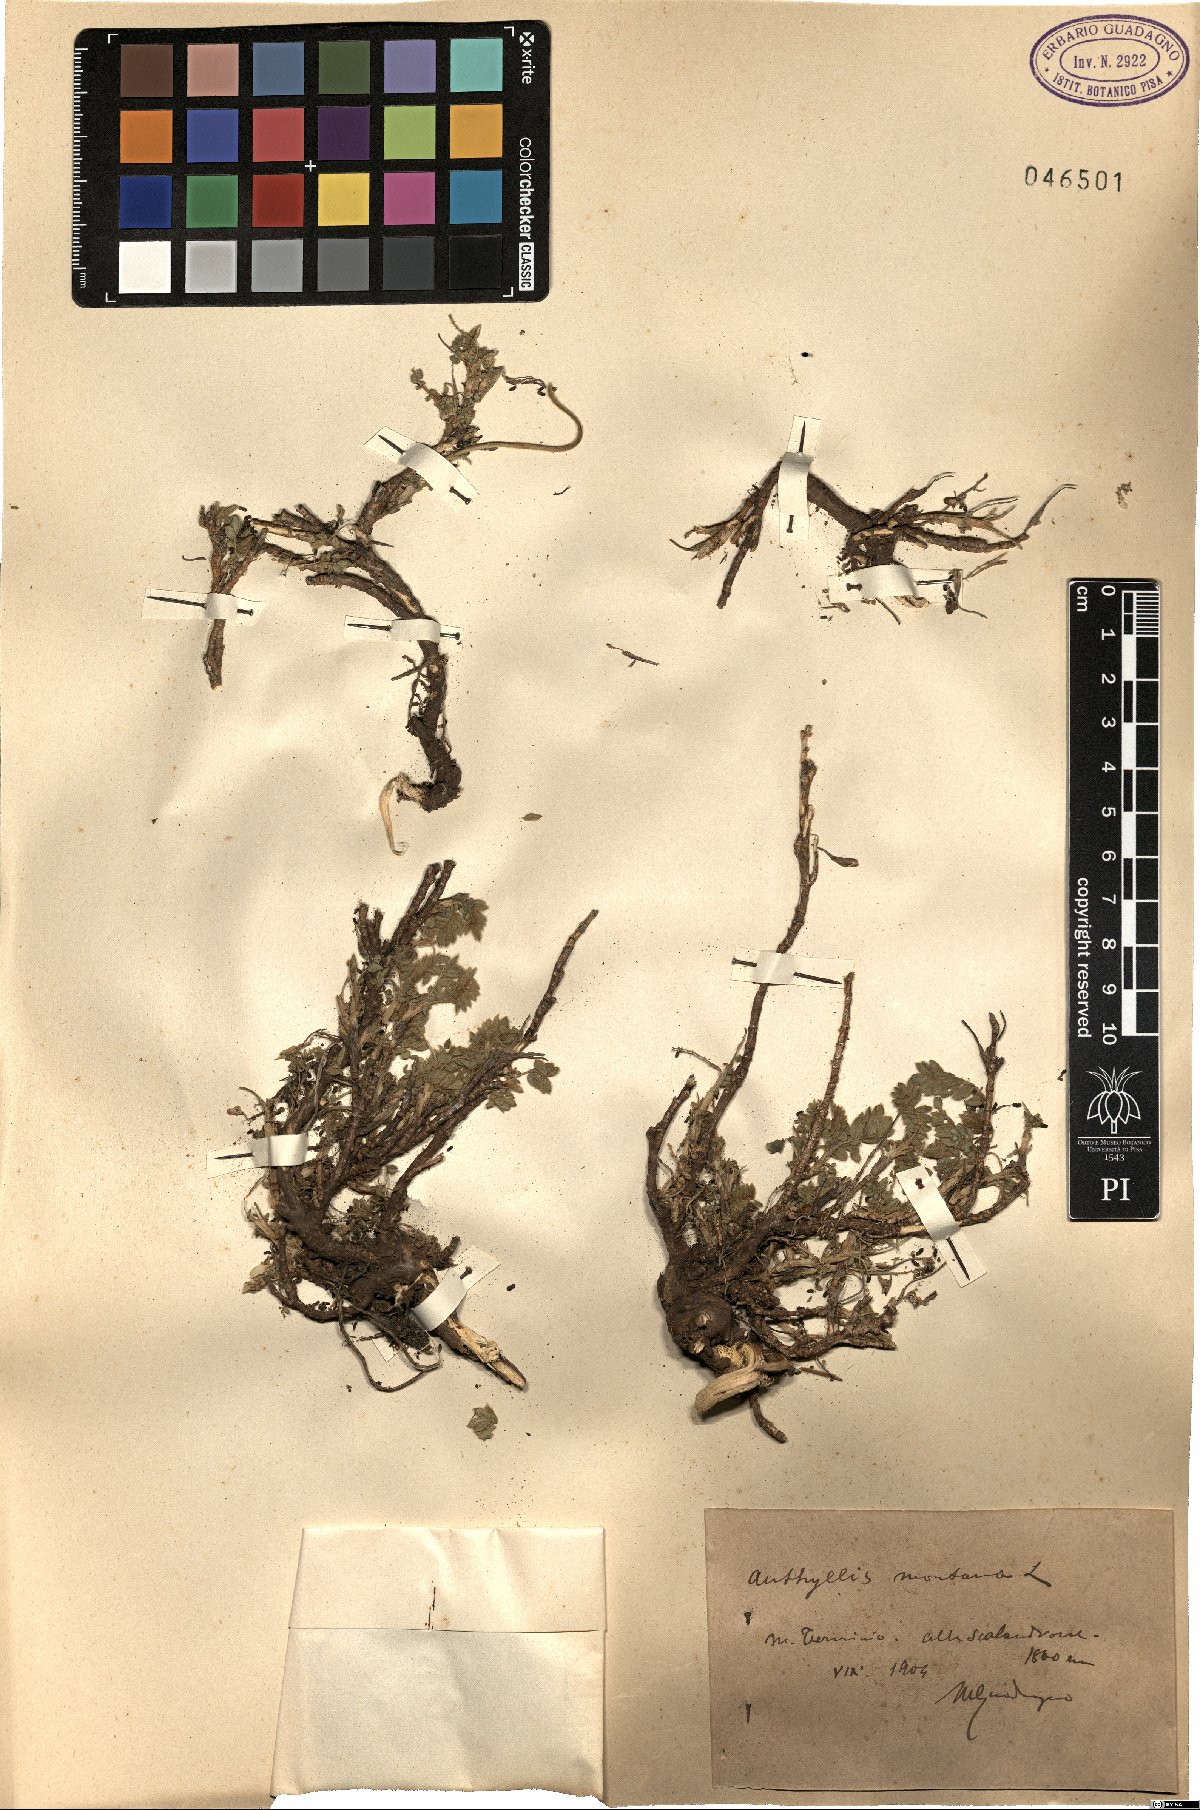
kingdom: Plantae
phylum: Tracheophyta
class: Magnoliopsida
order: Fabales
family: Fabaceae
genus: Anthyllis
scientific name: Anthyllis montana
